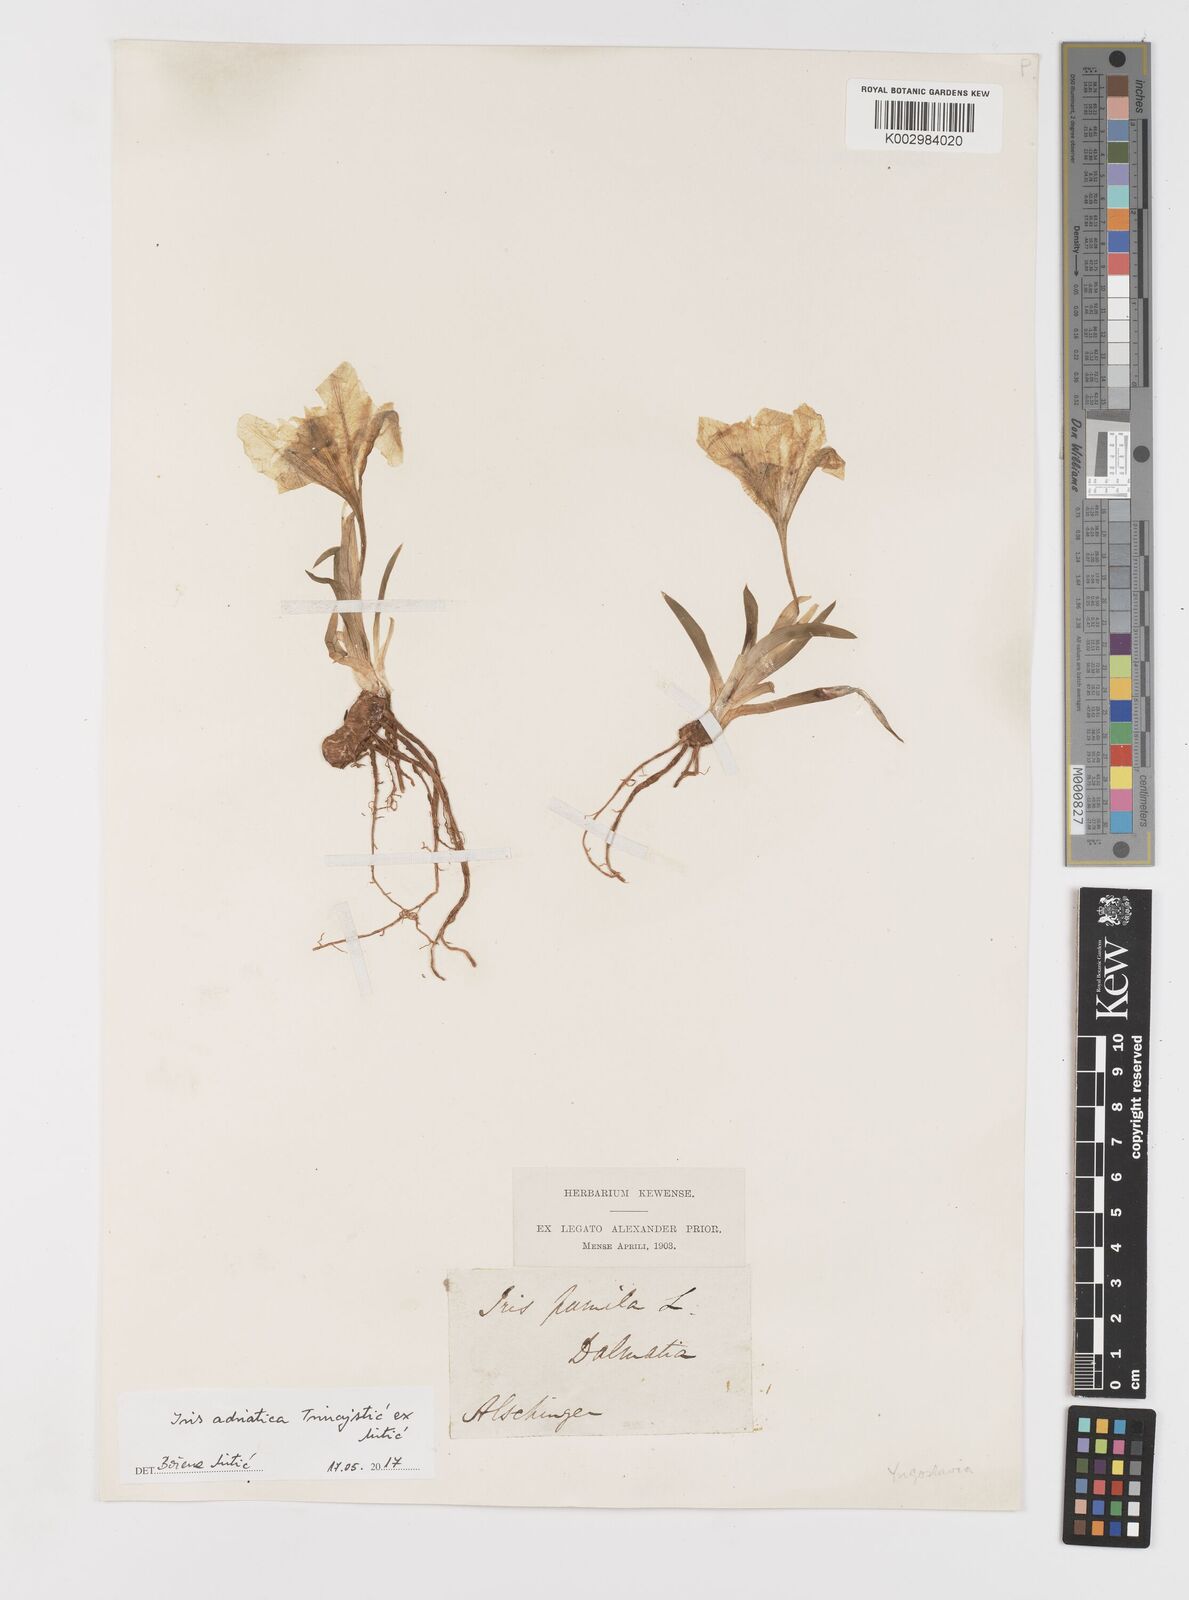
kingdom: Plantae
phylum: Tracheophyta
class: Liliopsida
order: Asparagales
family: Iridaceae
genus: Iris
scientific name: Iris adriatica
